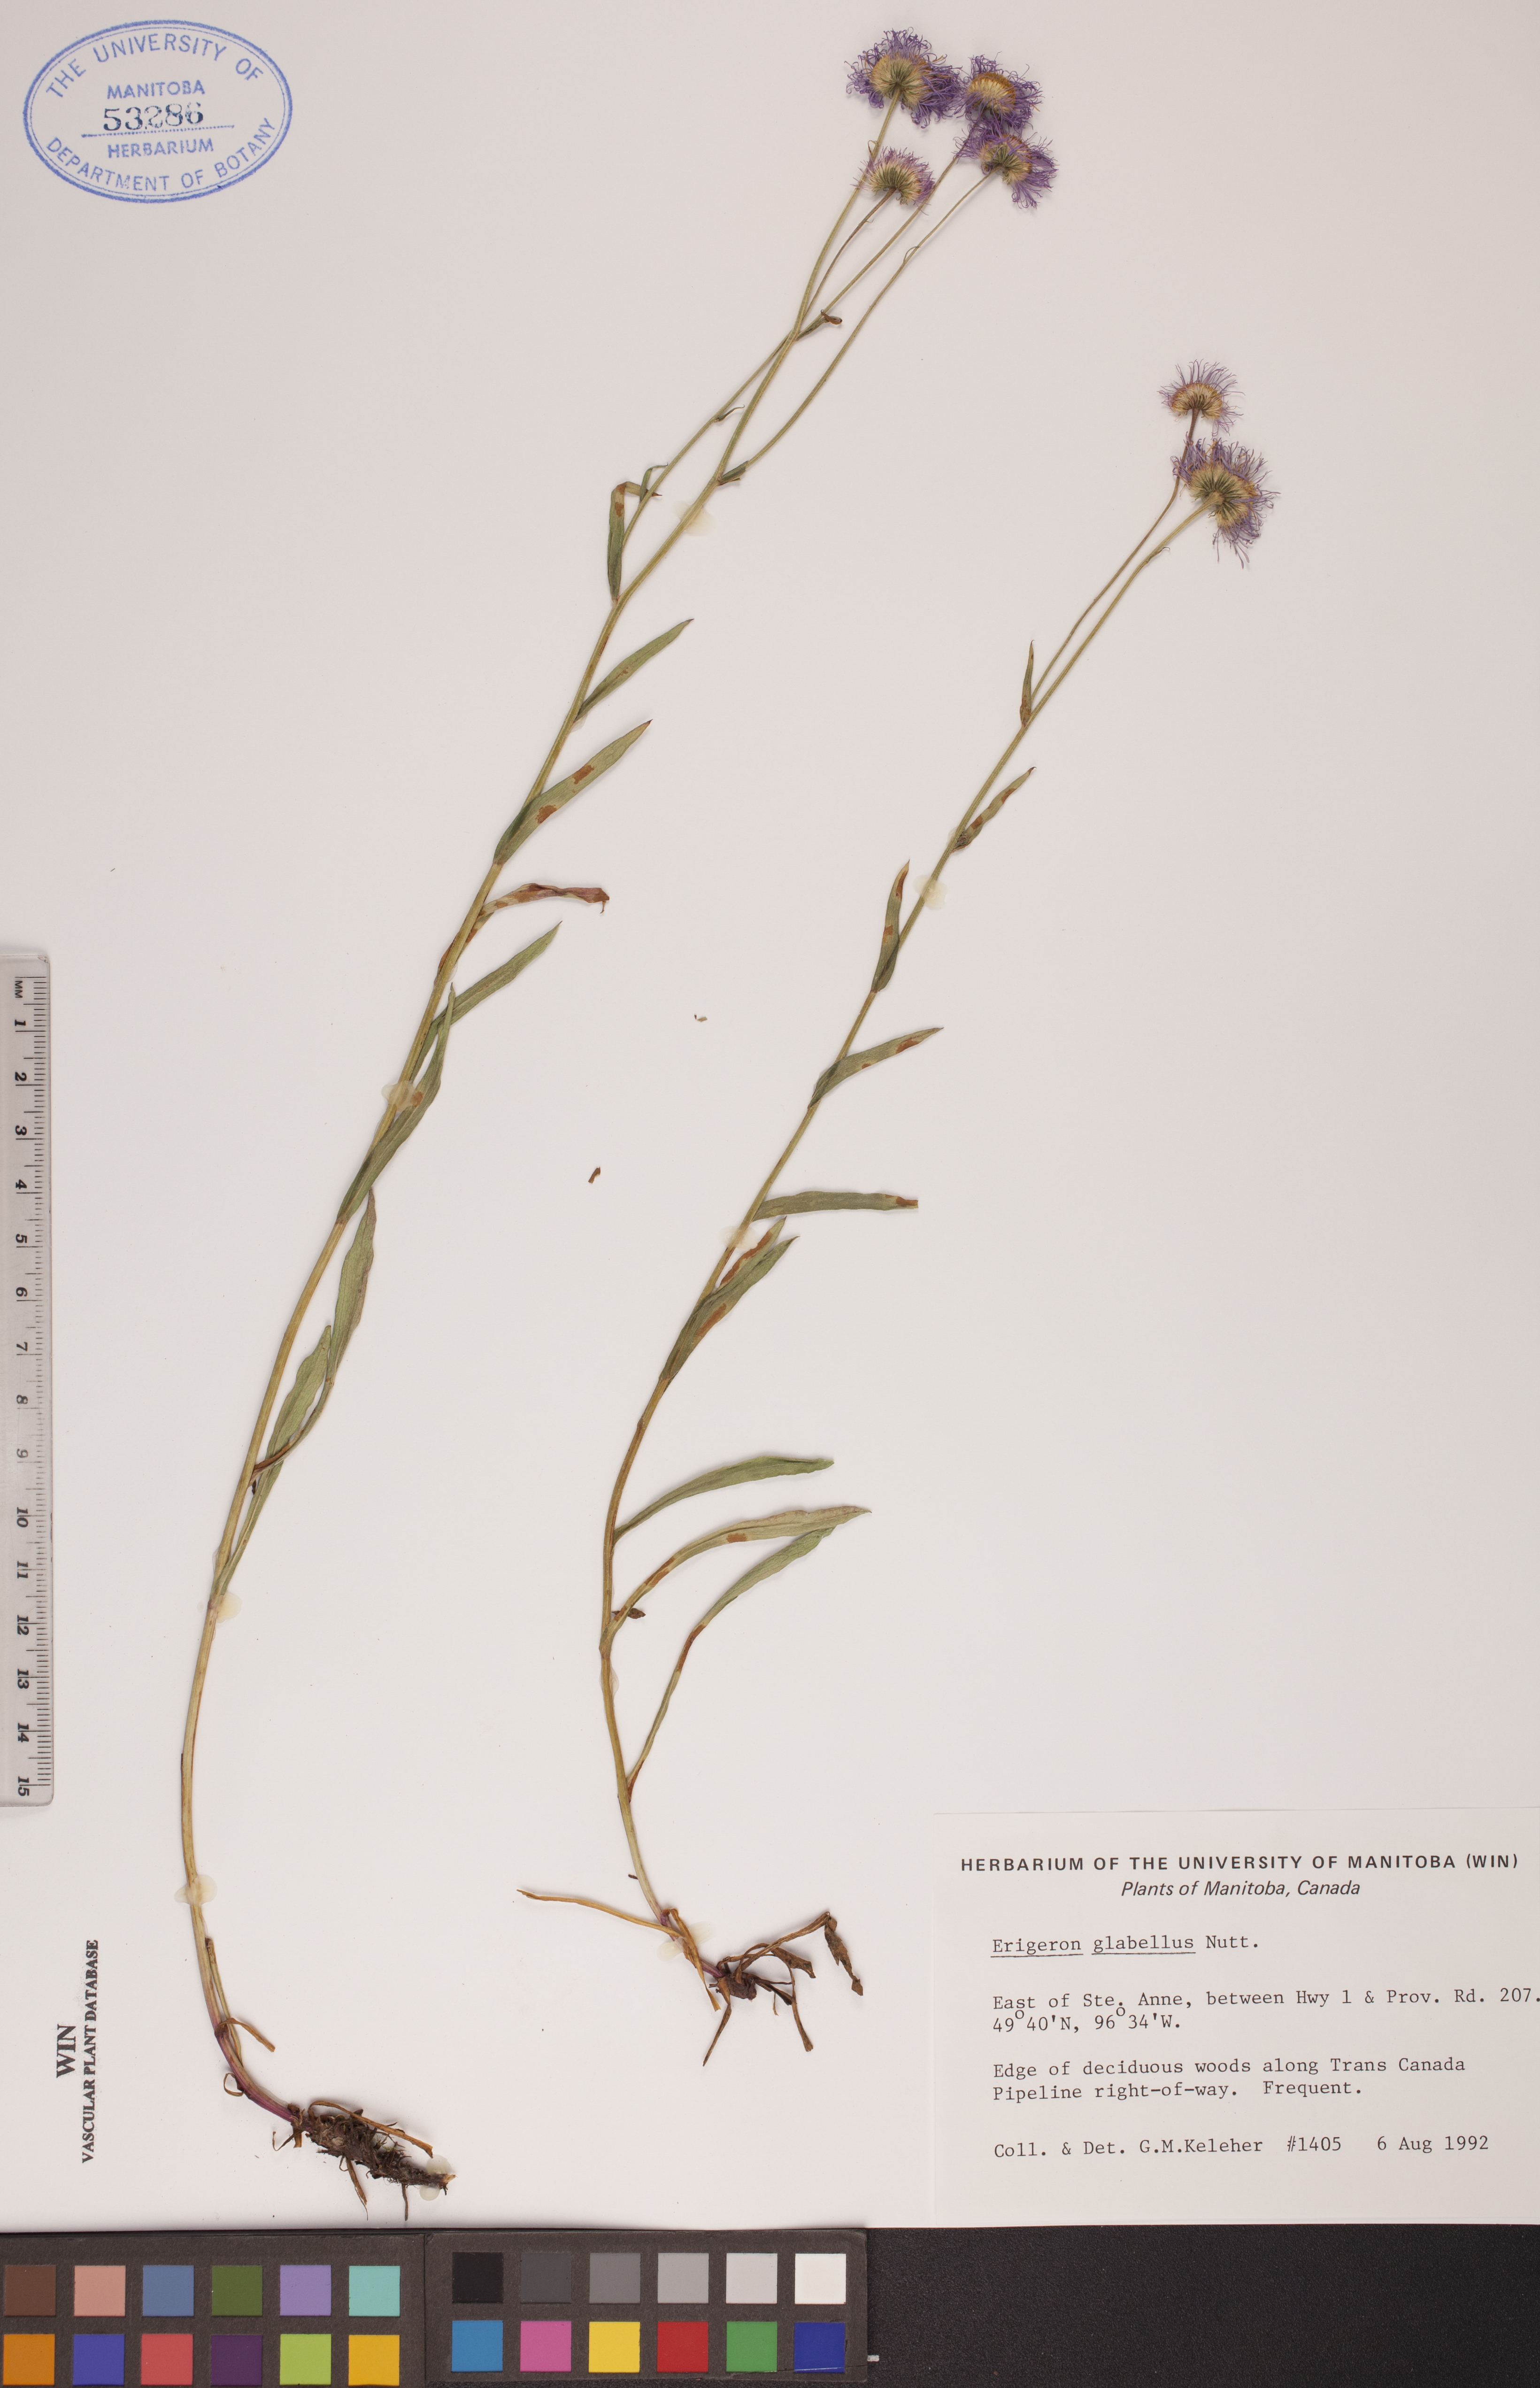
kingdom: Plantae
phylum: Tracheophyta
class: Magnoliopsida
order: Asterales
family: Asteraceae
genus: Erigeron
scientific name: Erigeron glabellus
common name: Smooth fleabane
